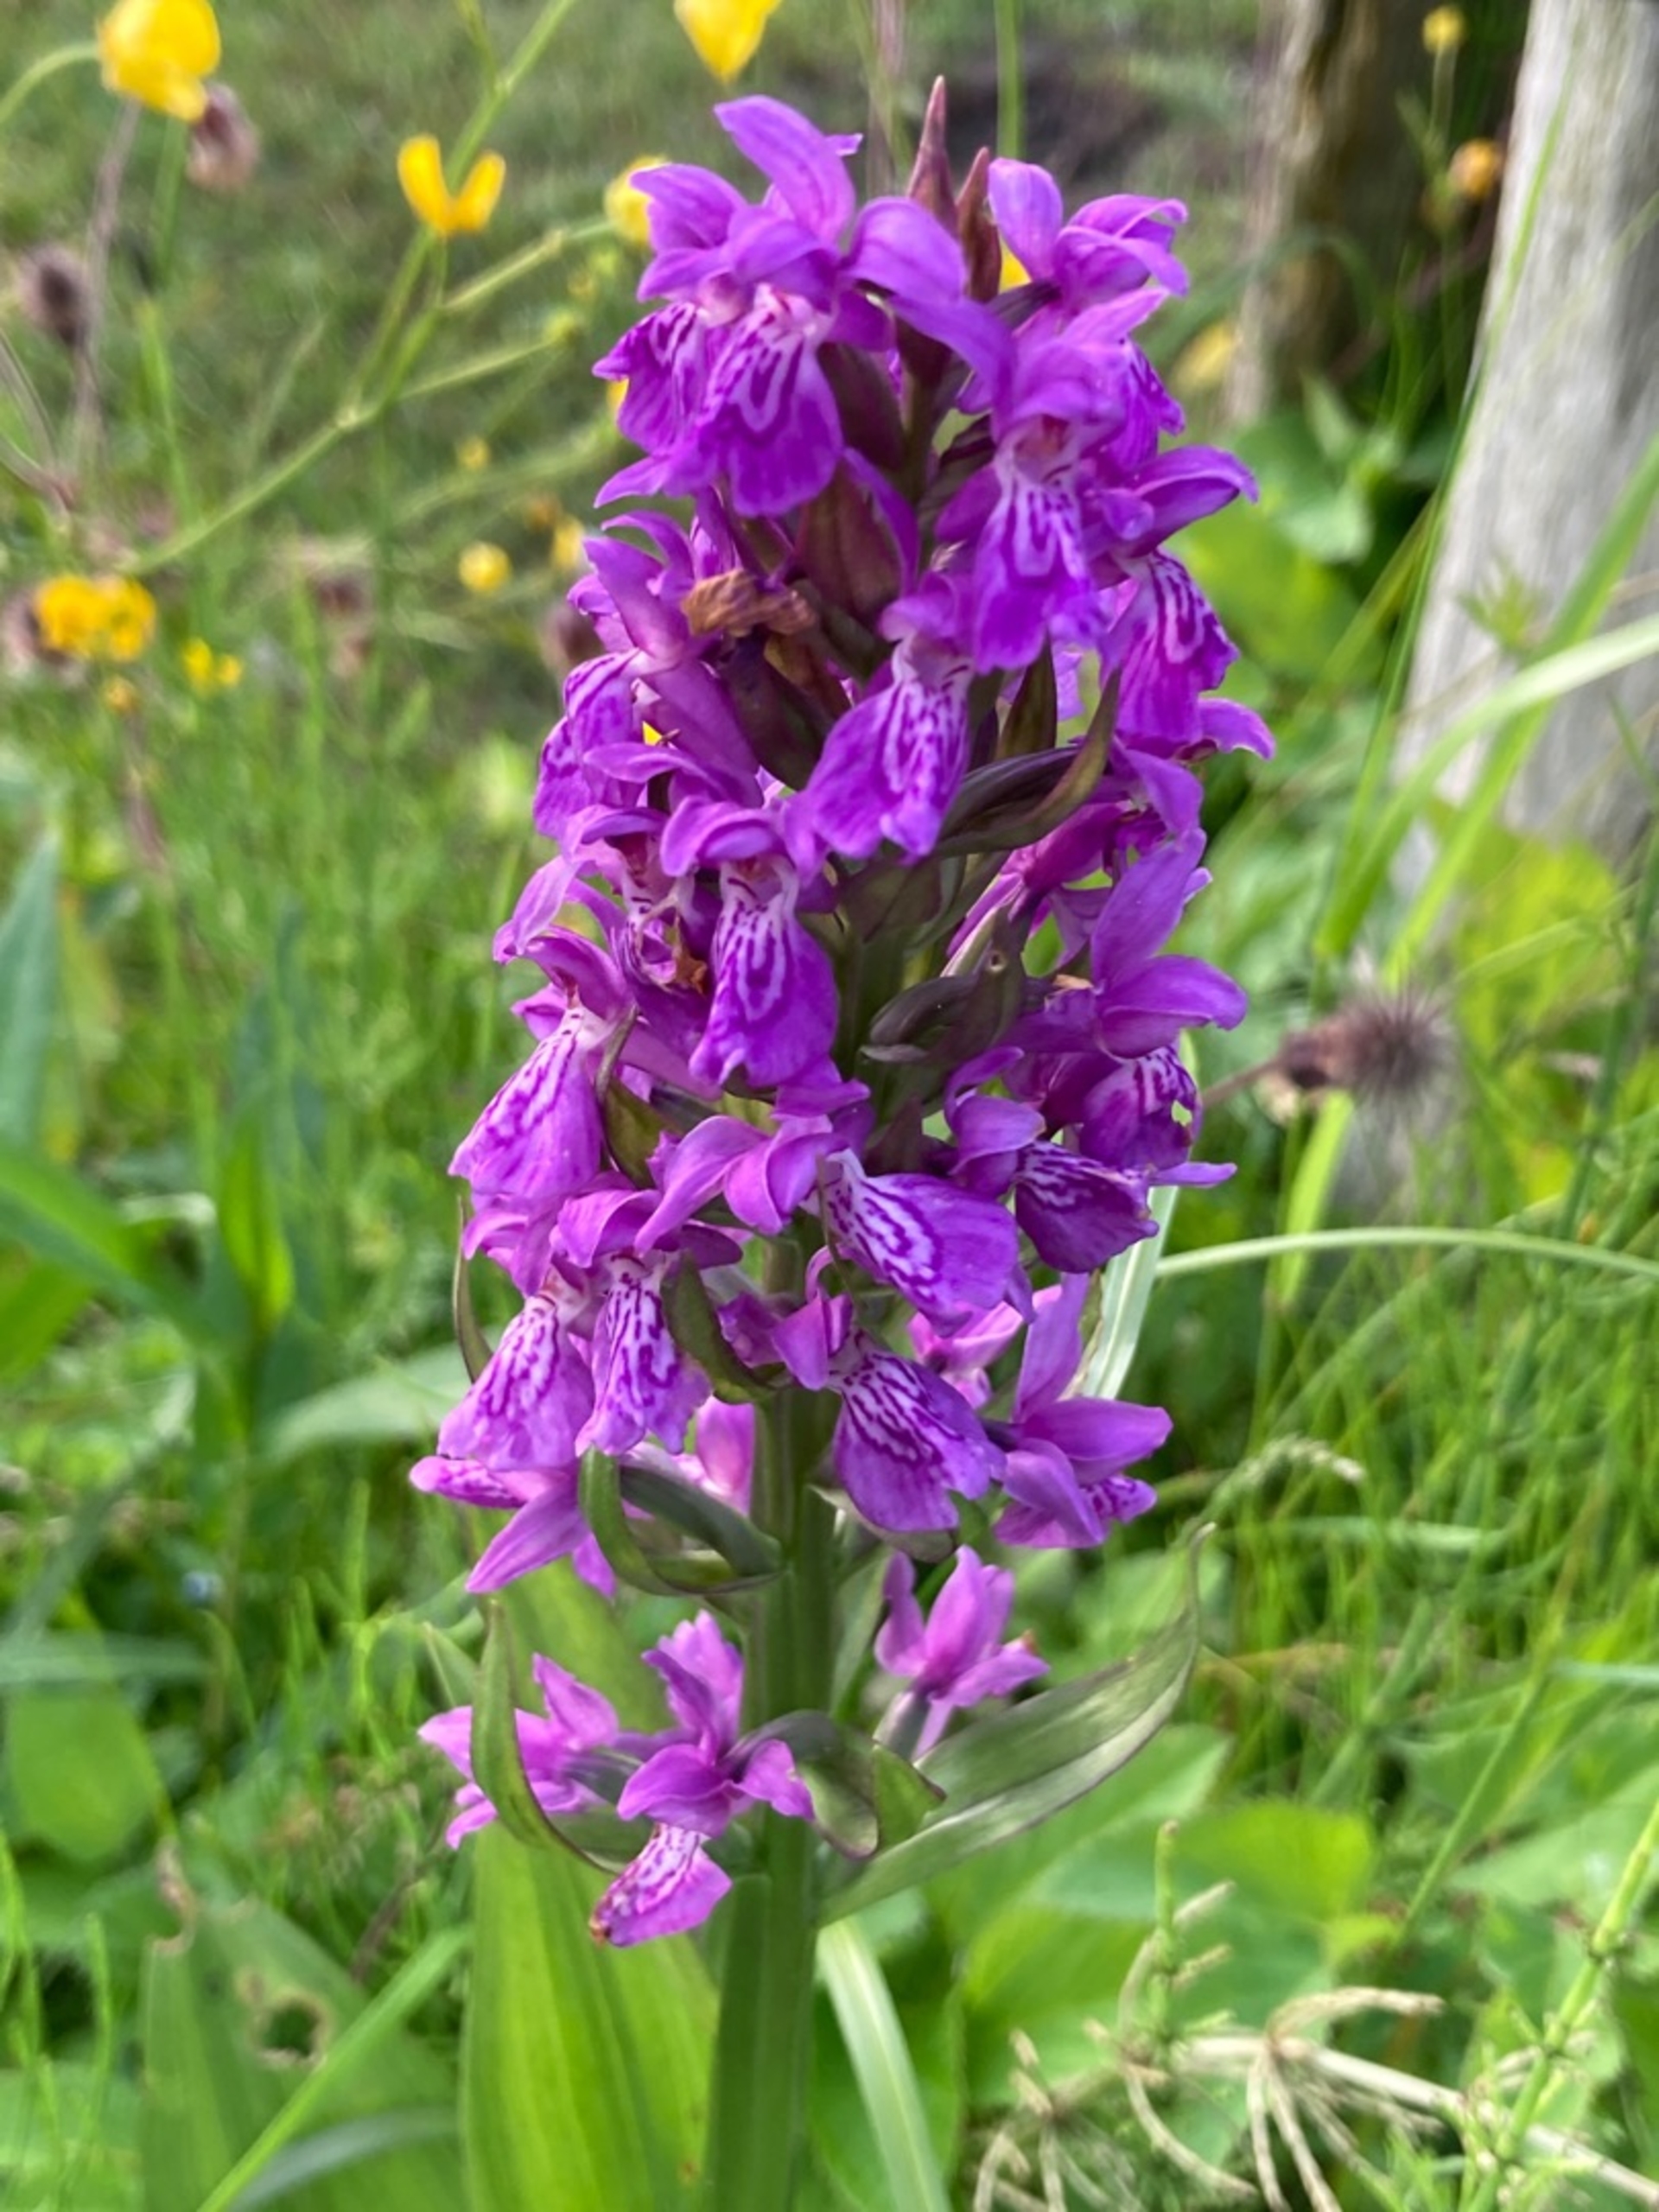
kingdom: Plantae
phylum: Tracheophyta
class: Liliopsida
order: Asparagales
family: Orchidaceae
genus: Dactylorhiza
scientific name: Dactylorhiza majalis
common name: Maj-gøgeurt
